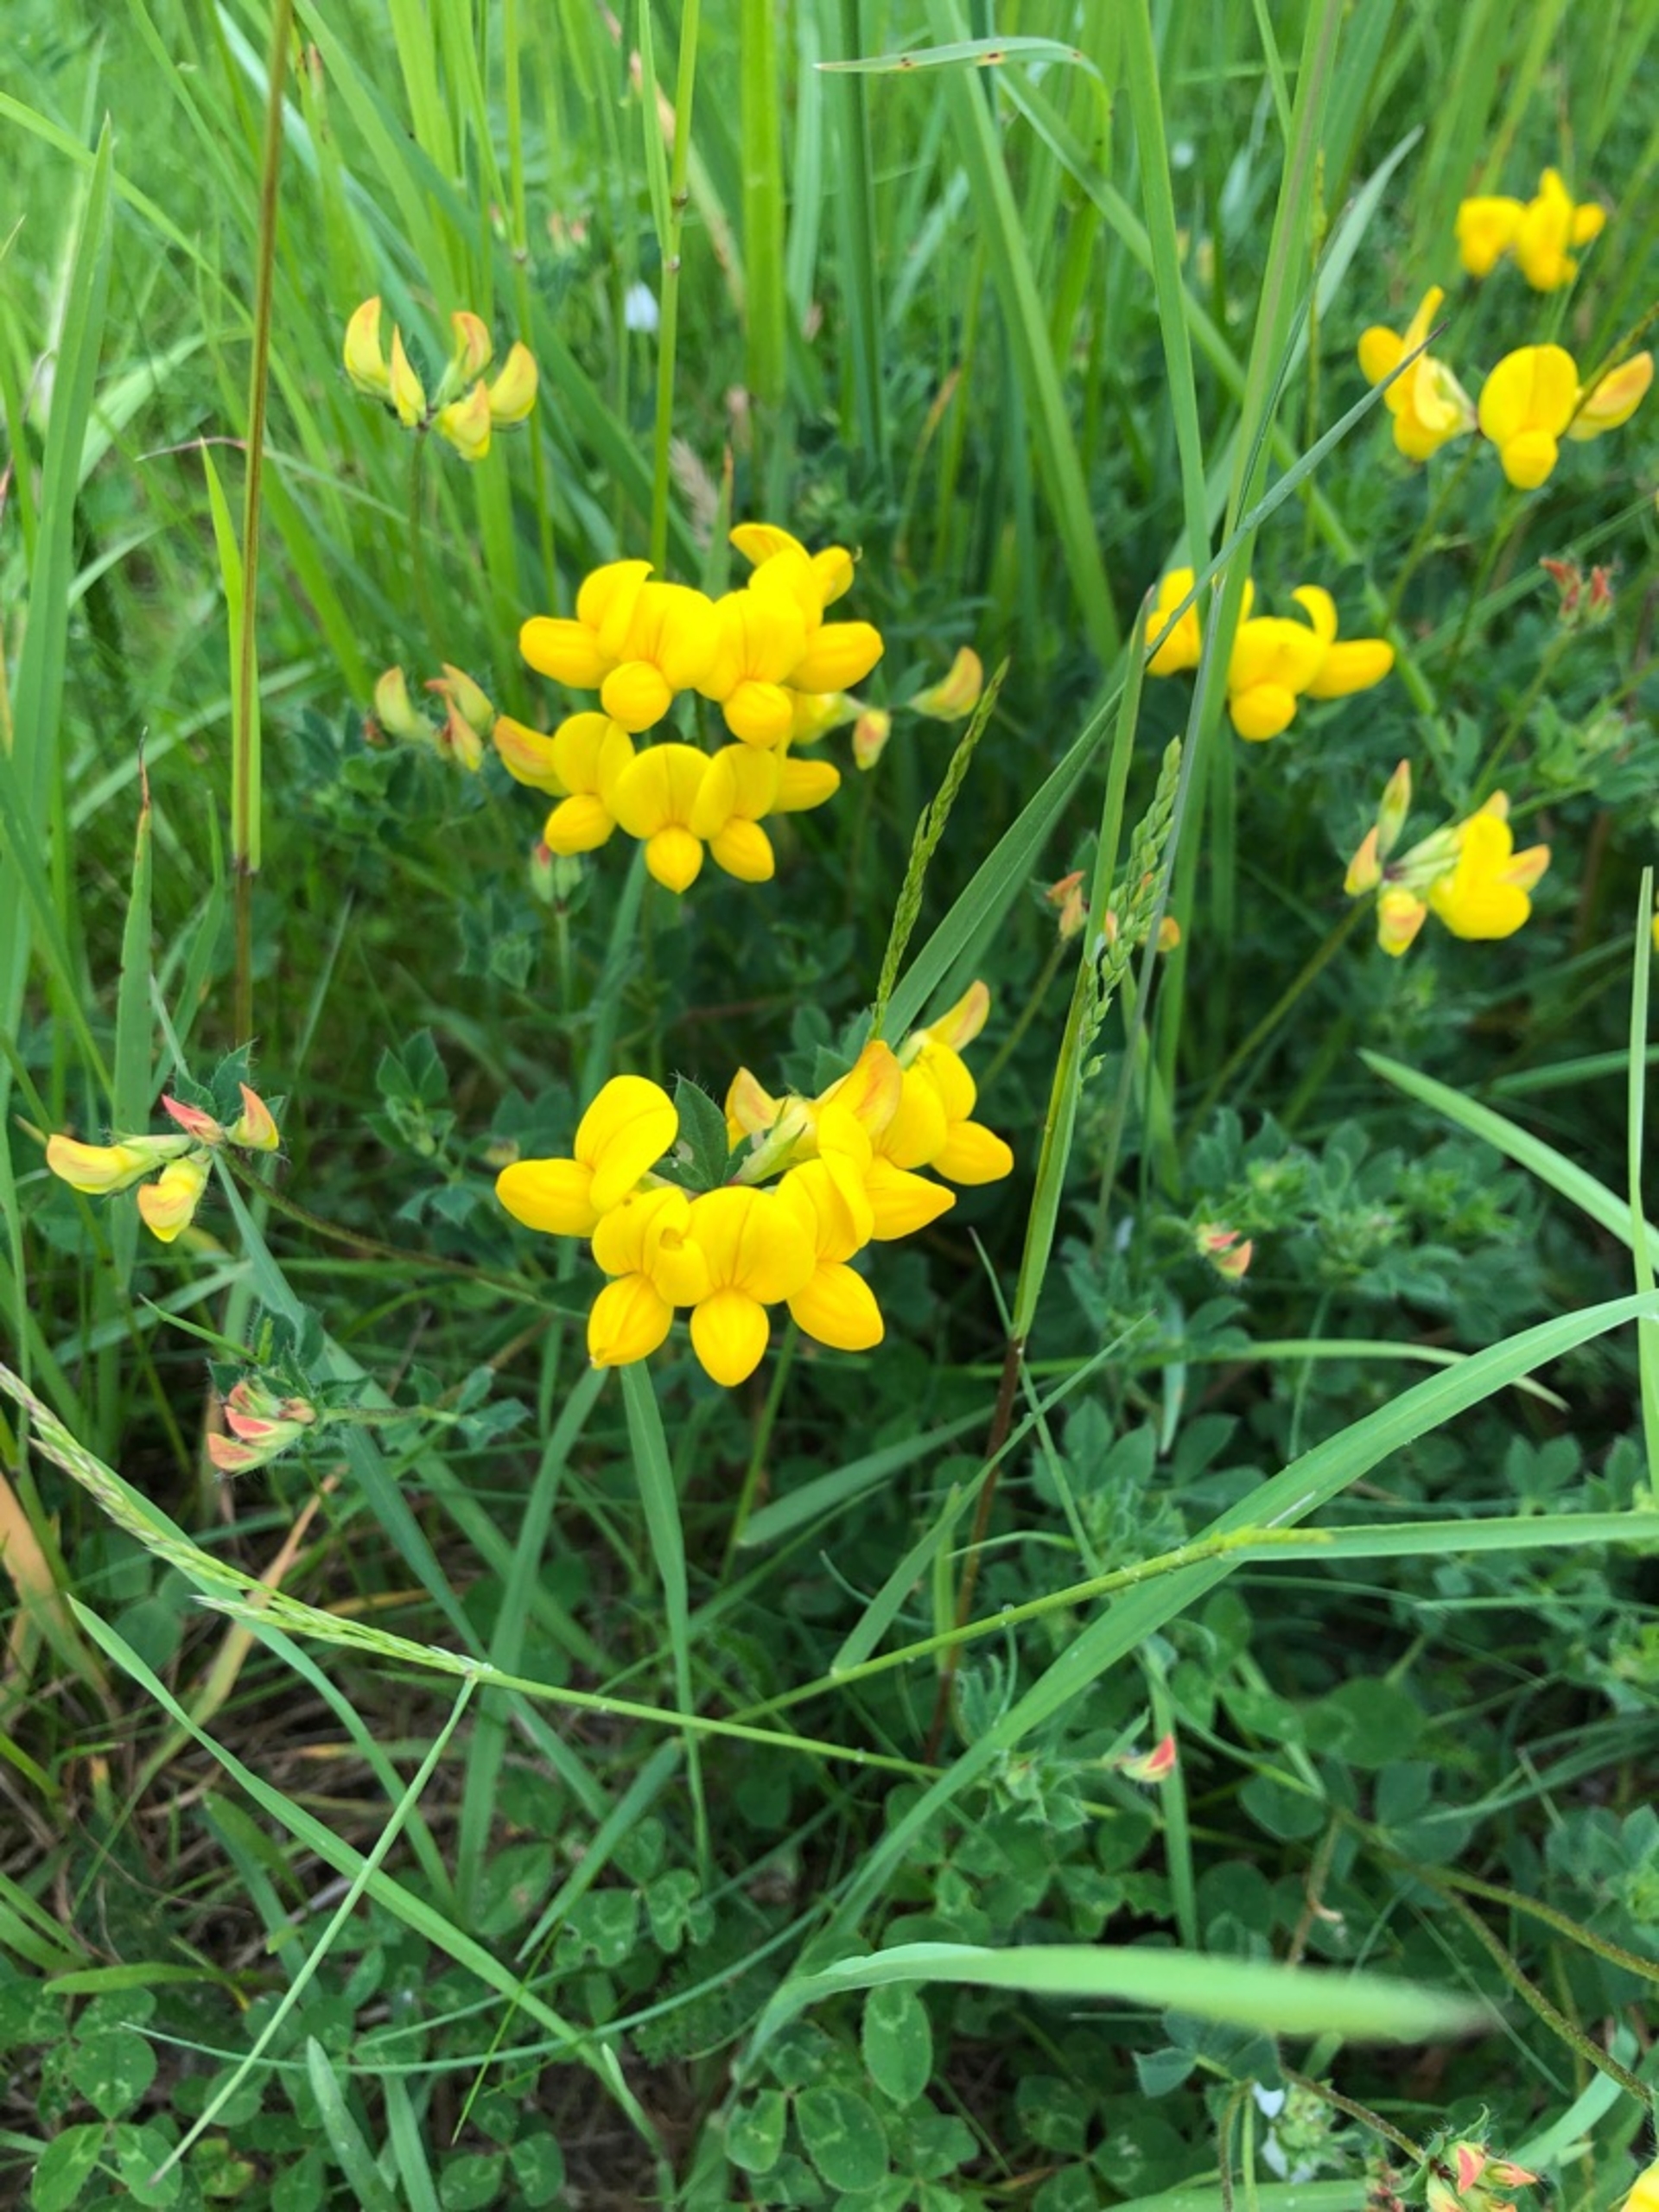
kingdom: Plantae
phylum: Tracheophyta
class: Magnoliopsida
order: Fabales
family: Fabaceae
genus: Lotus
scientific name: Lotus corniculatus
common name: Almindelig kællingetand
